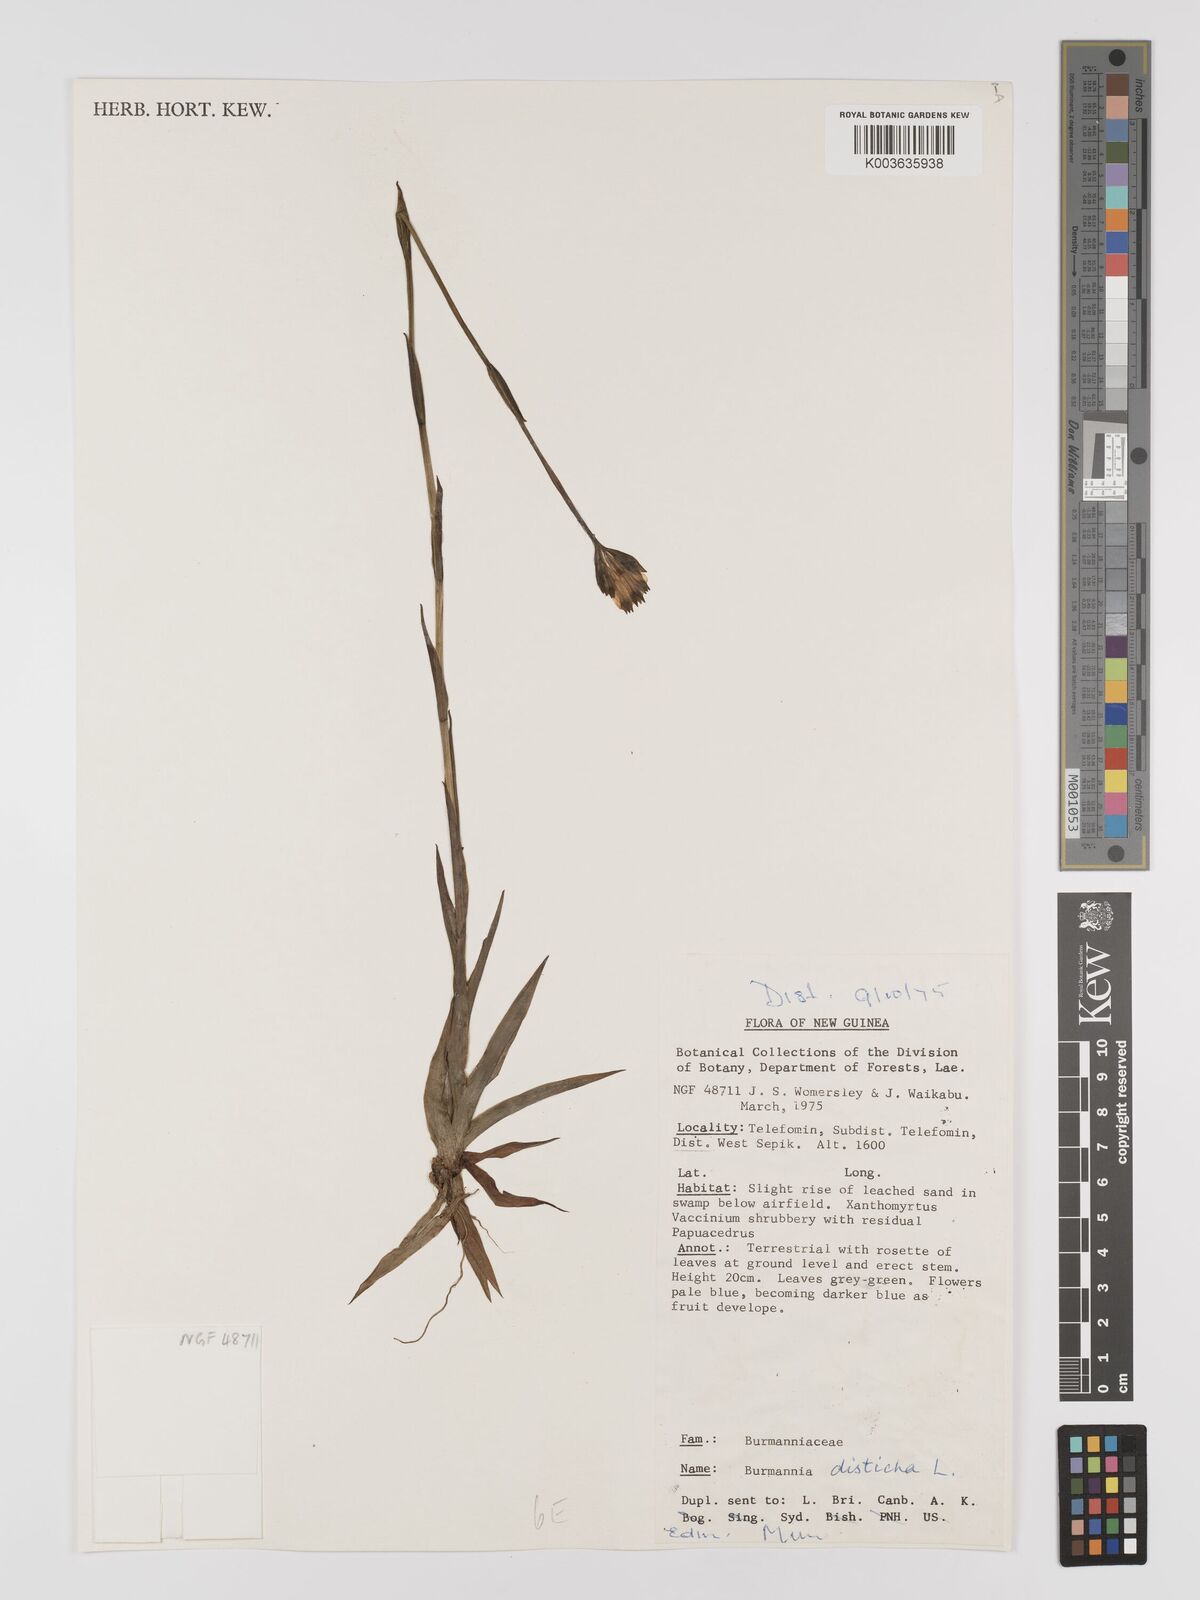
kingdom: Plantae
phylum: Tracheophyta
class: Liliopsida
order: Dioscoreales
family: Burmanniaceae
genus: Burmannia
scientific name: Burmannia disticha
